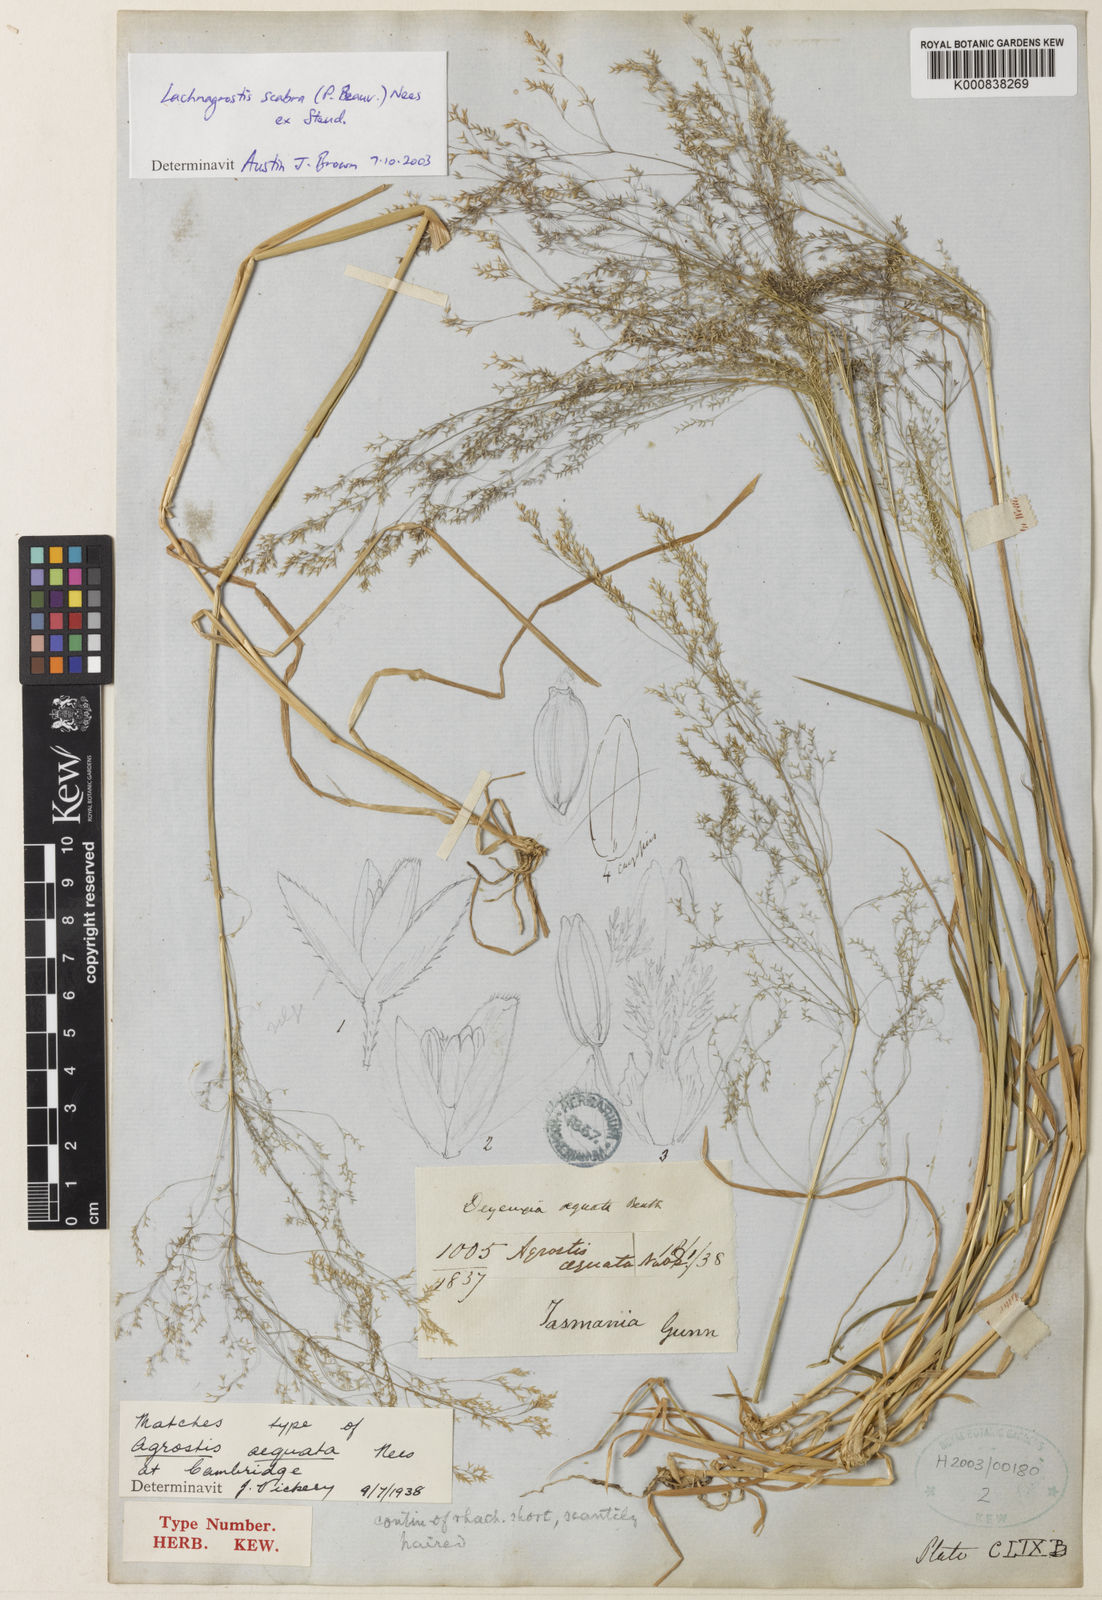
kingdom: Plantae
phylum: Tracheophyta
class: Liliopsida
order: Poales
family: Poaceae
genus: Lachnagrostis
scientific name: Lachnagrostis rudis
